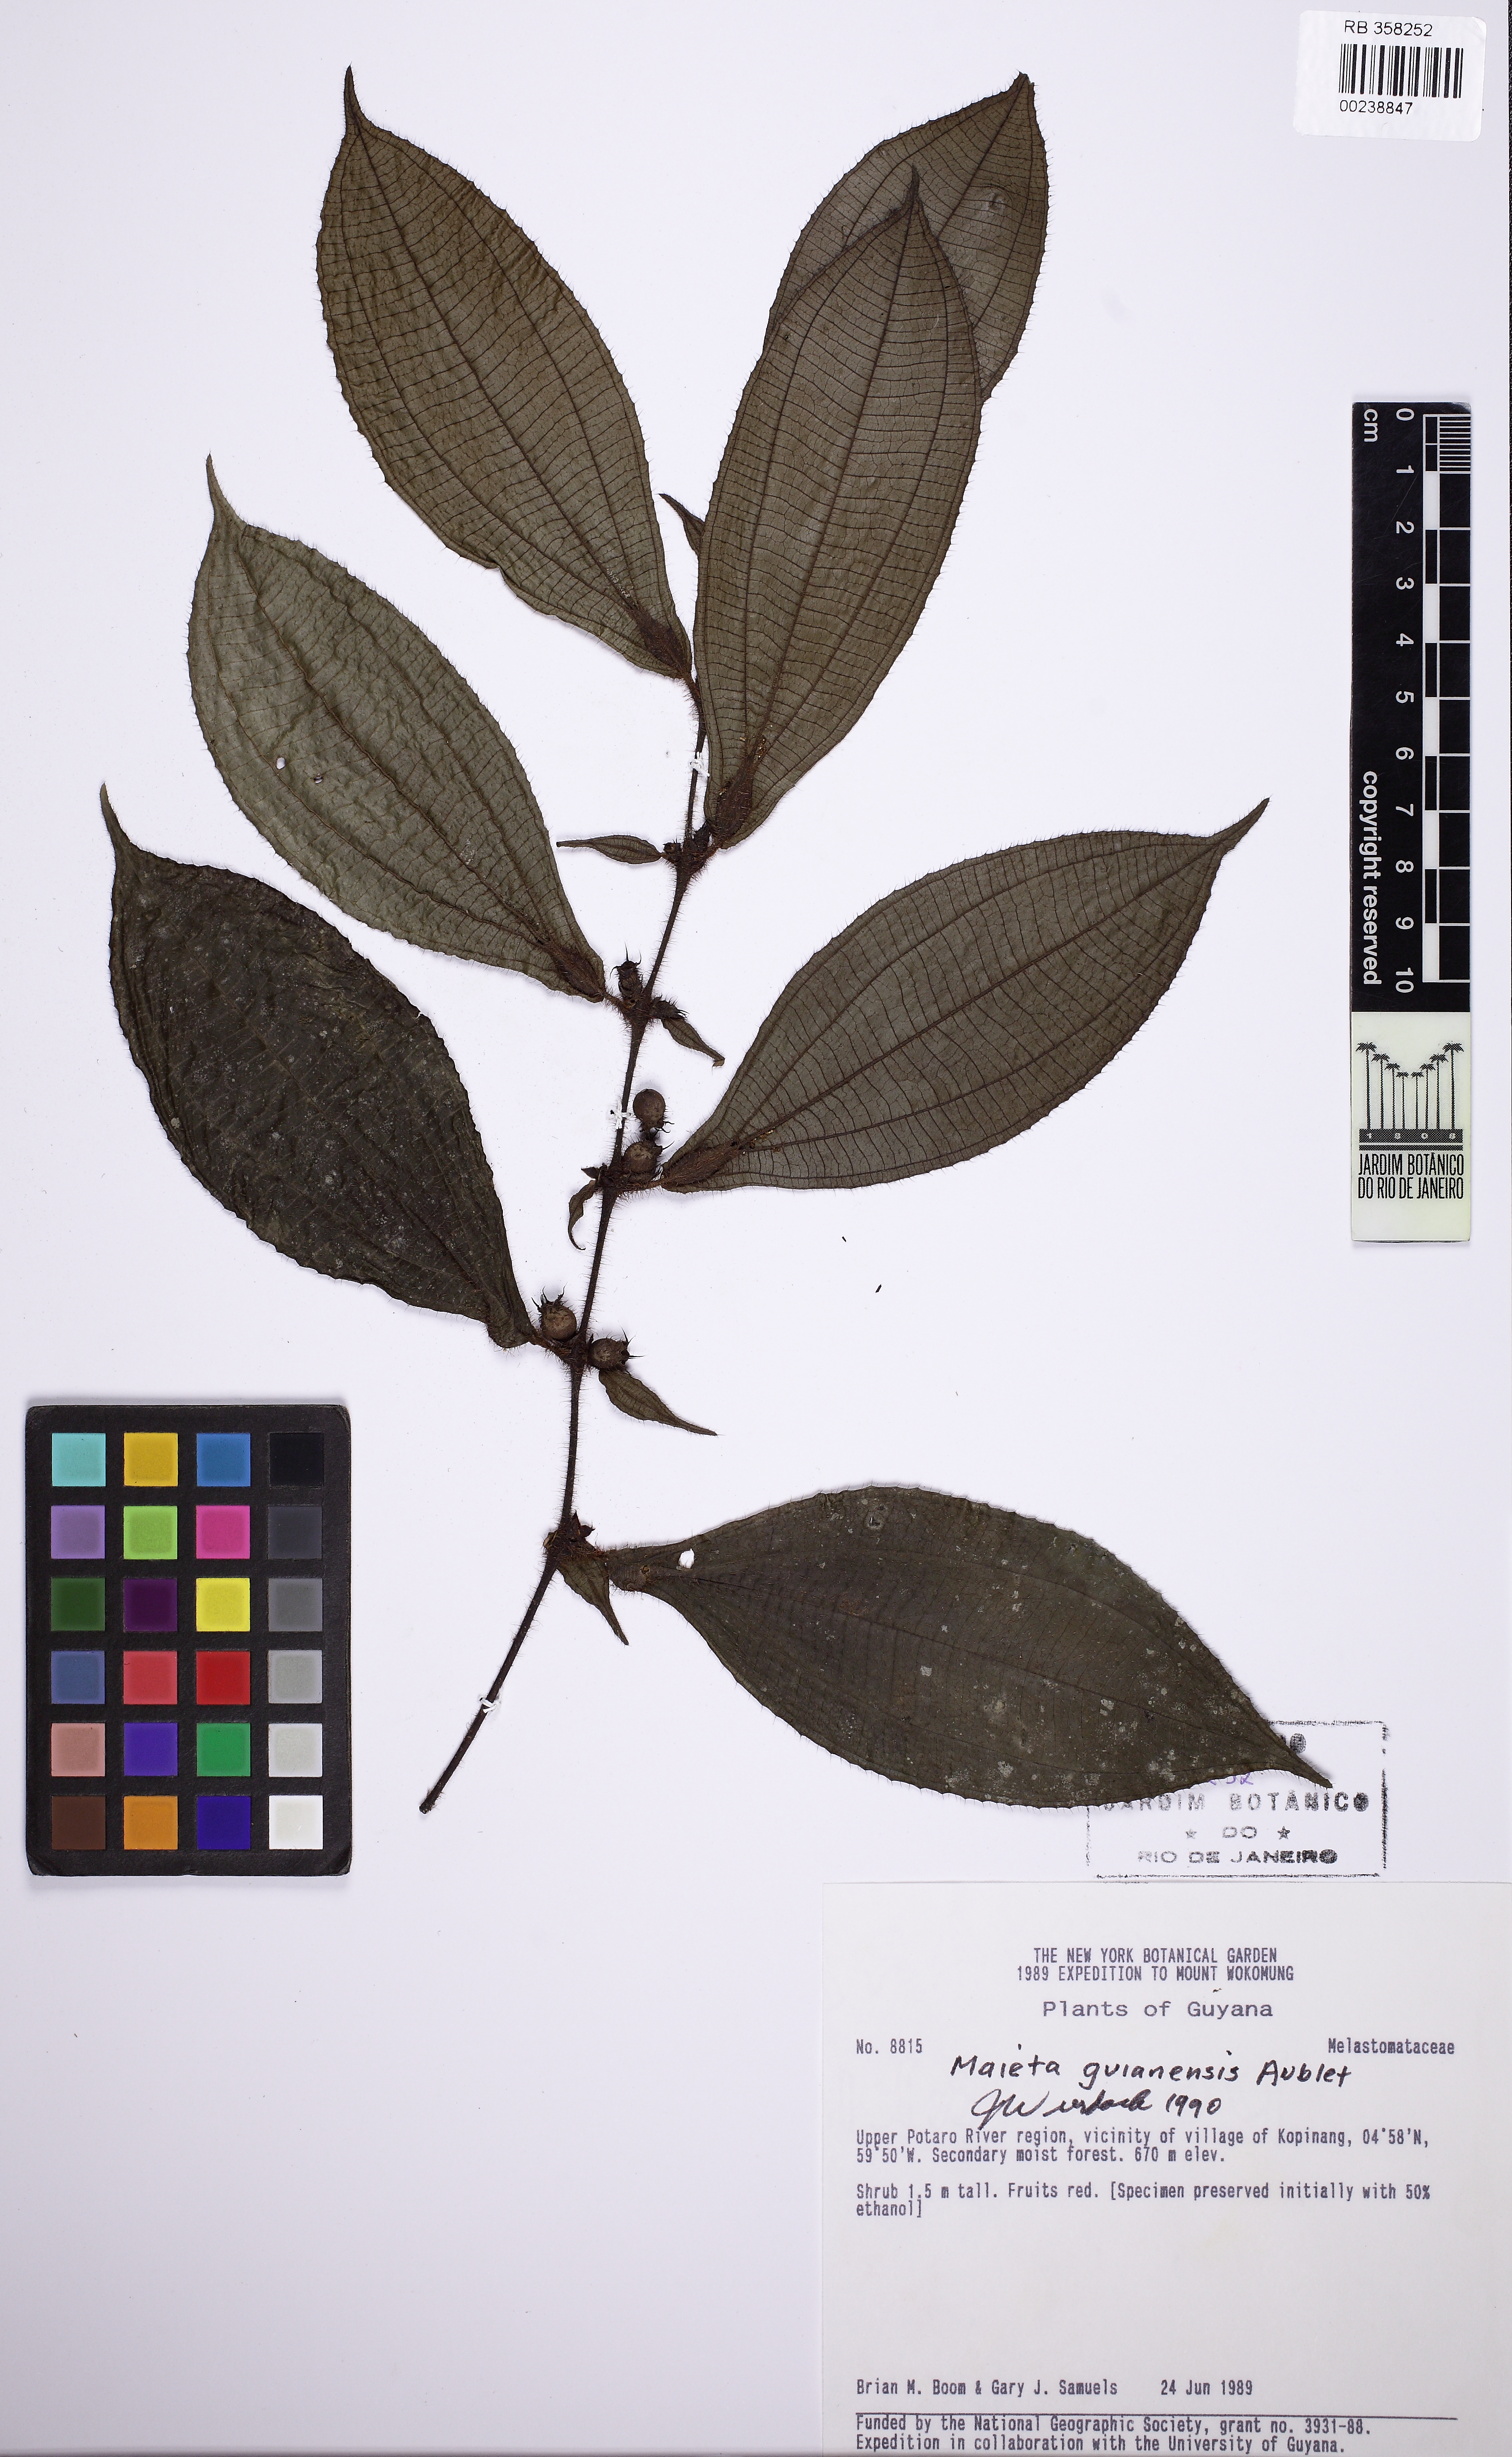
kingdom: Plantae
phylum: Tracheophyta
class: Magnoliopsida
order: Myrtales
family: Melastomataceae
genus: Miconia
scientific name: Miconia mayeta
